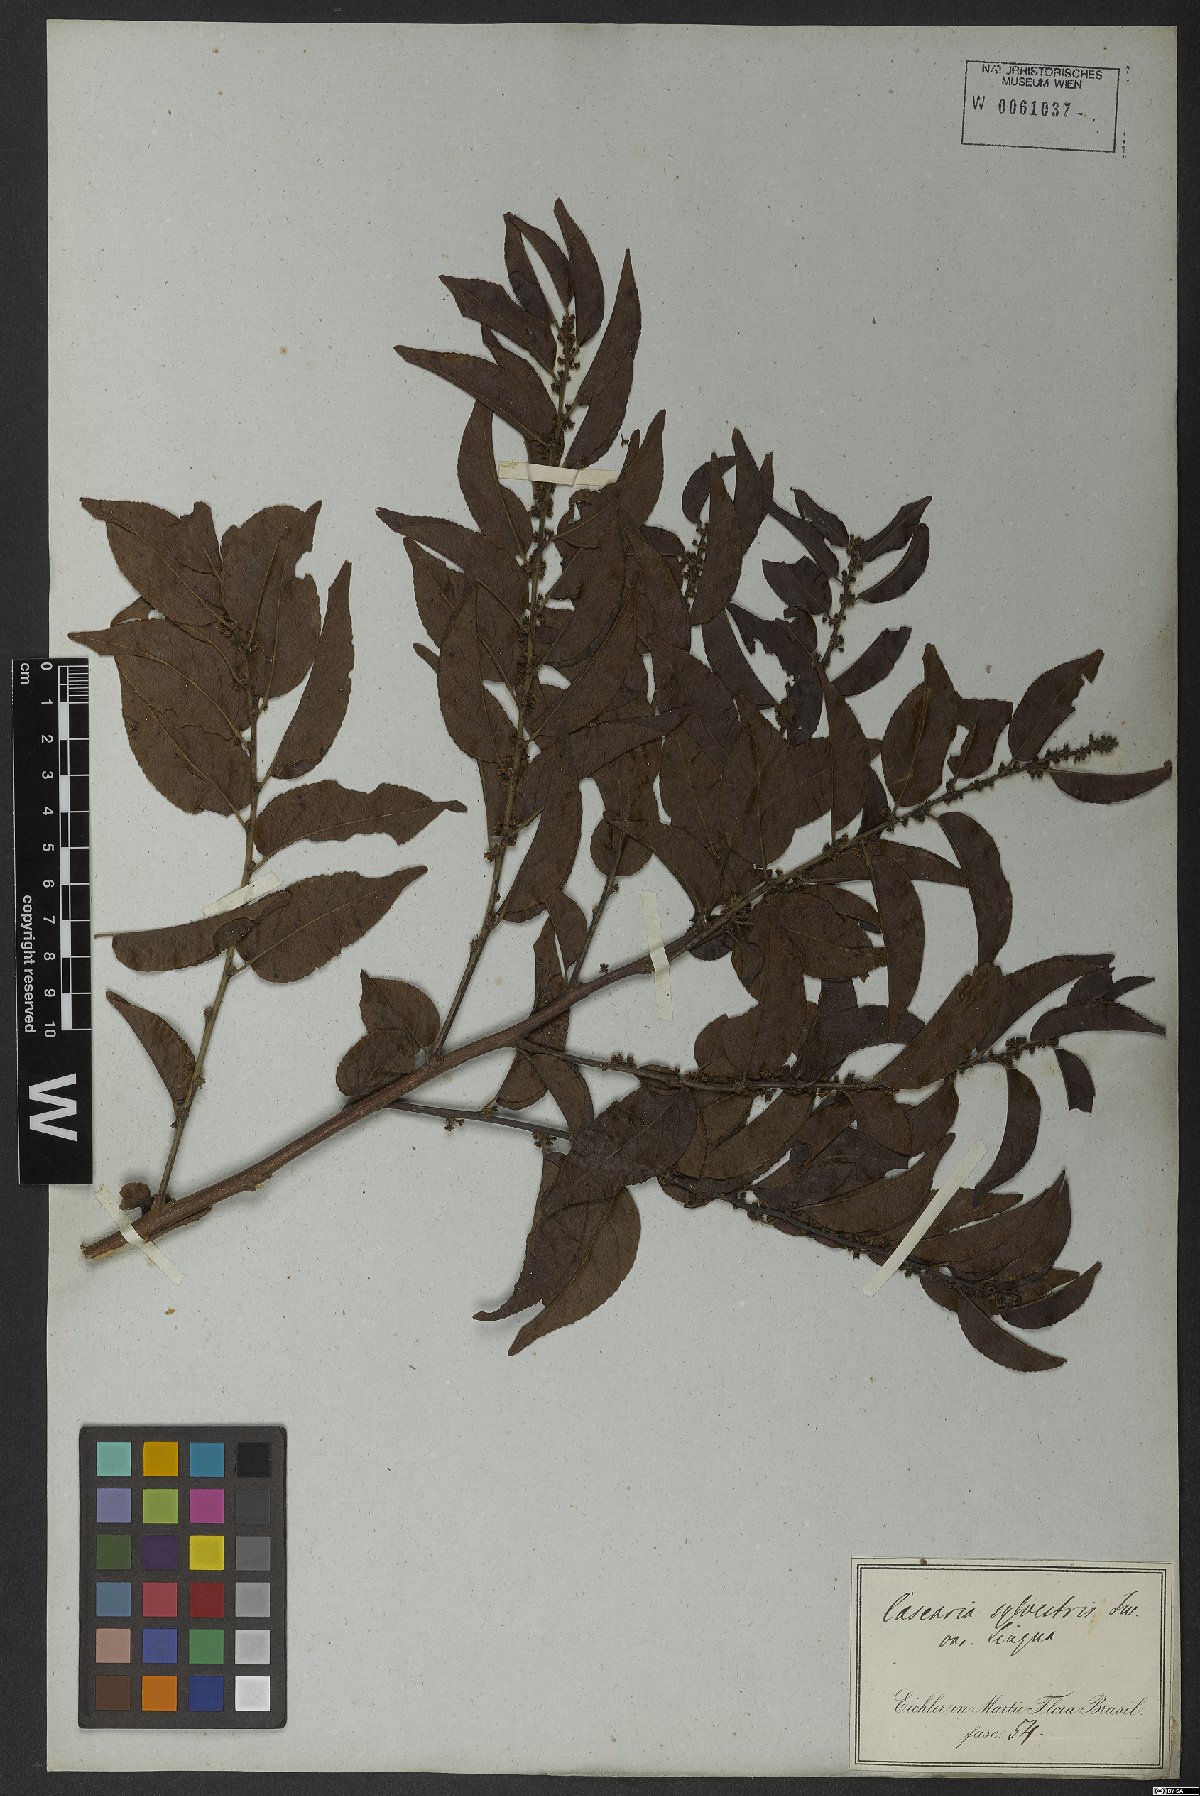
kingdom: Plantae
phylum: Tracheophyta
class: Magnoliopsida
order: Malpighiales
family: Salicaceae
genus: Casearia
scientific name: Casearia sylvestris
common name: Wild sage
